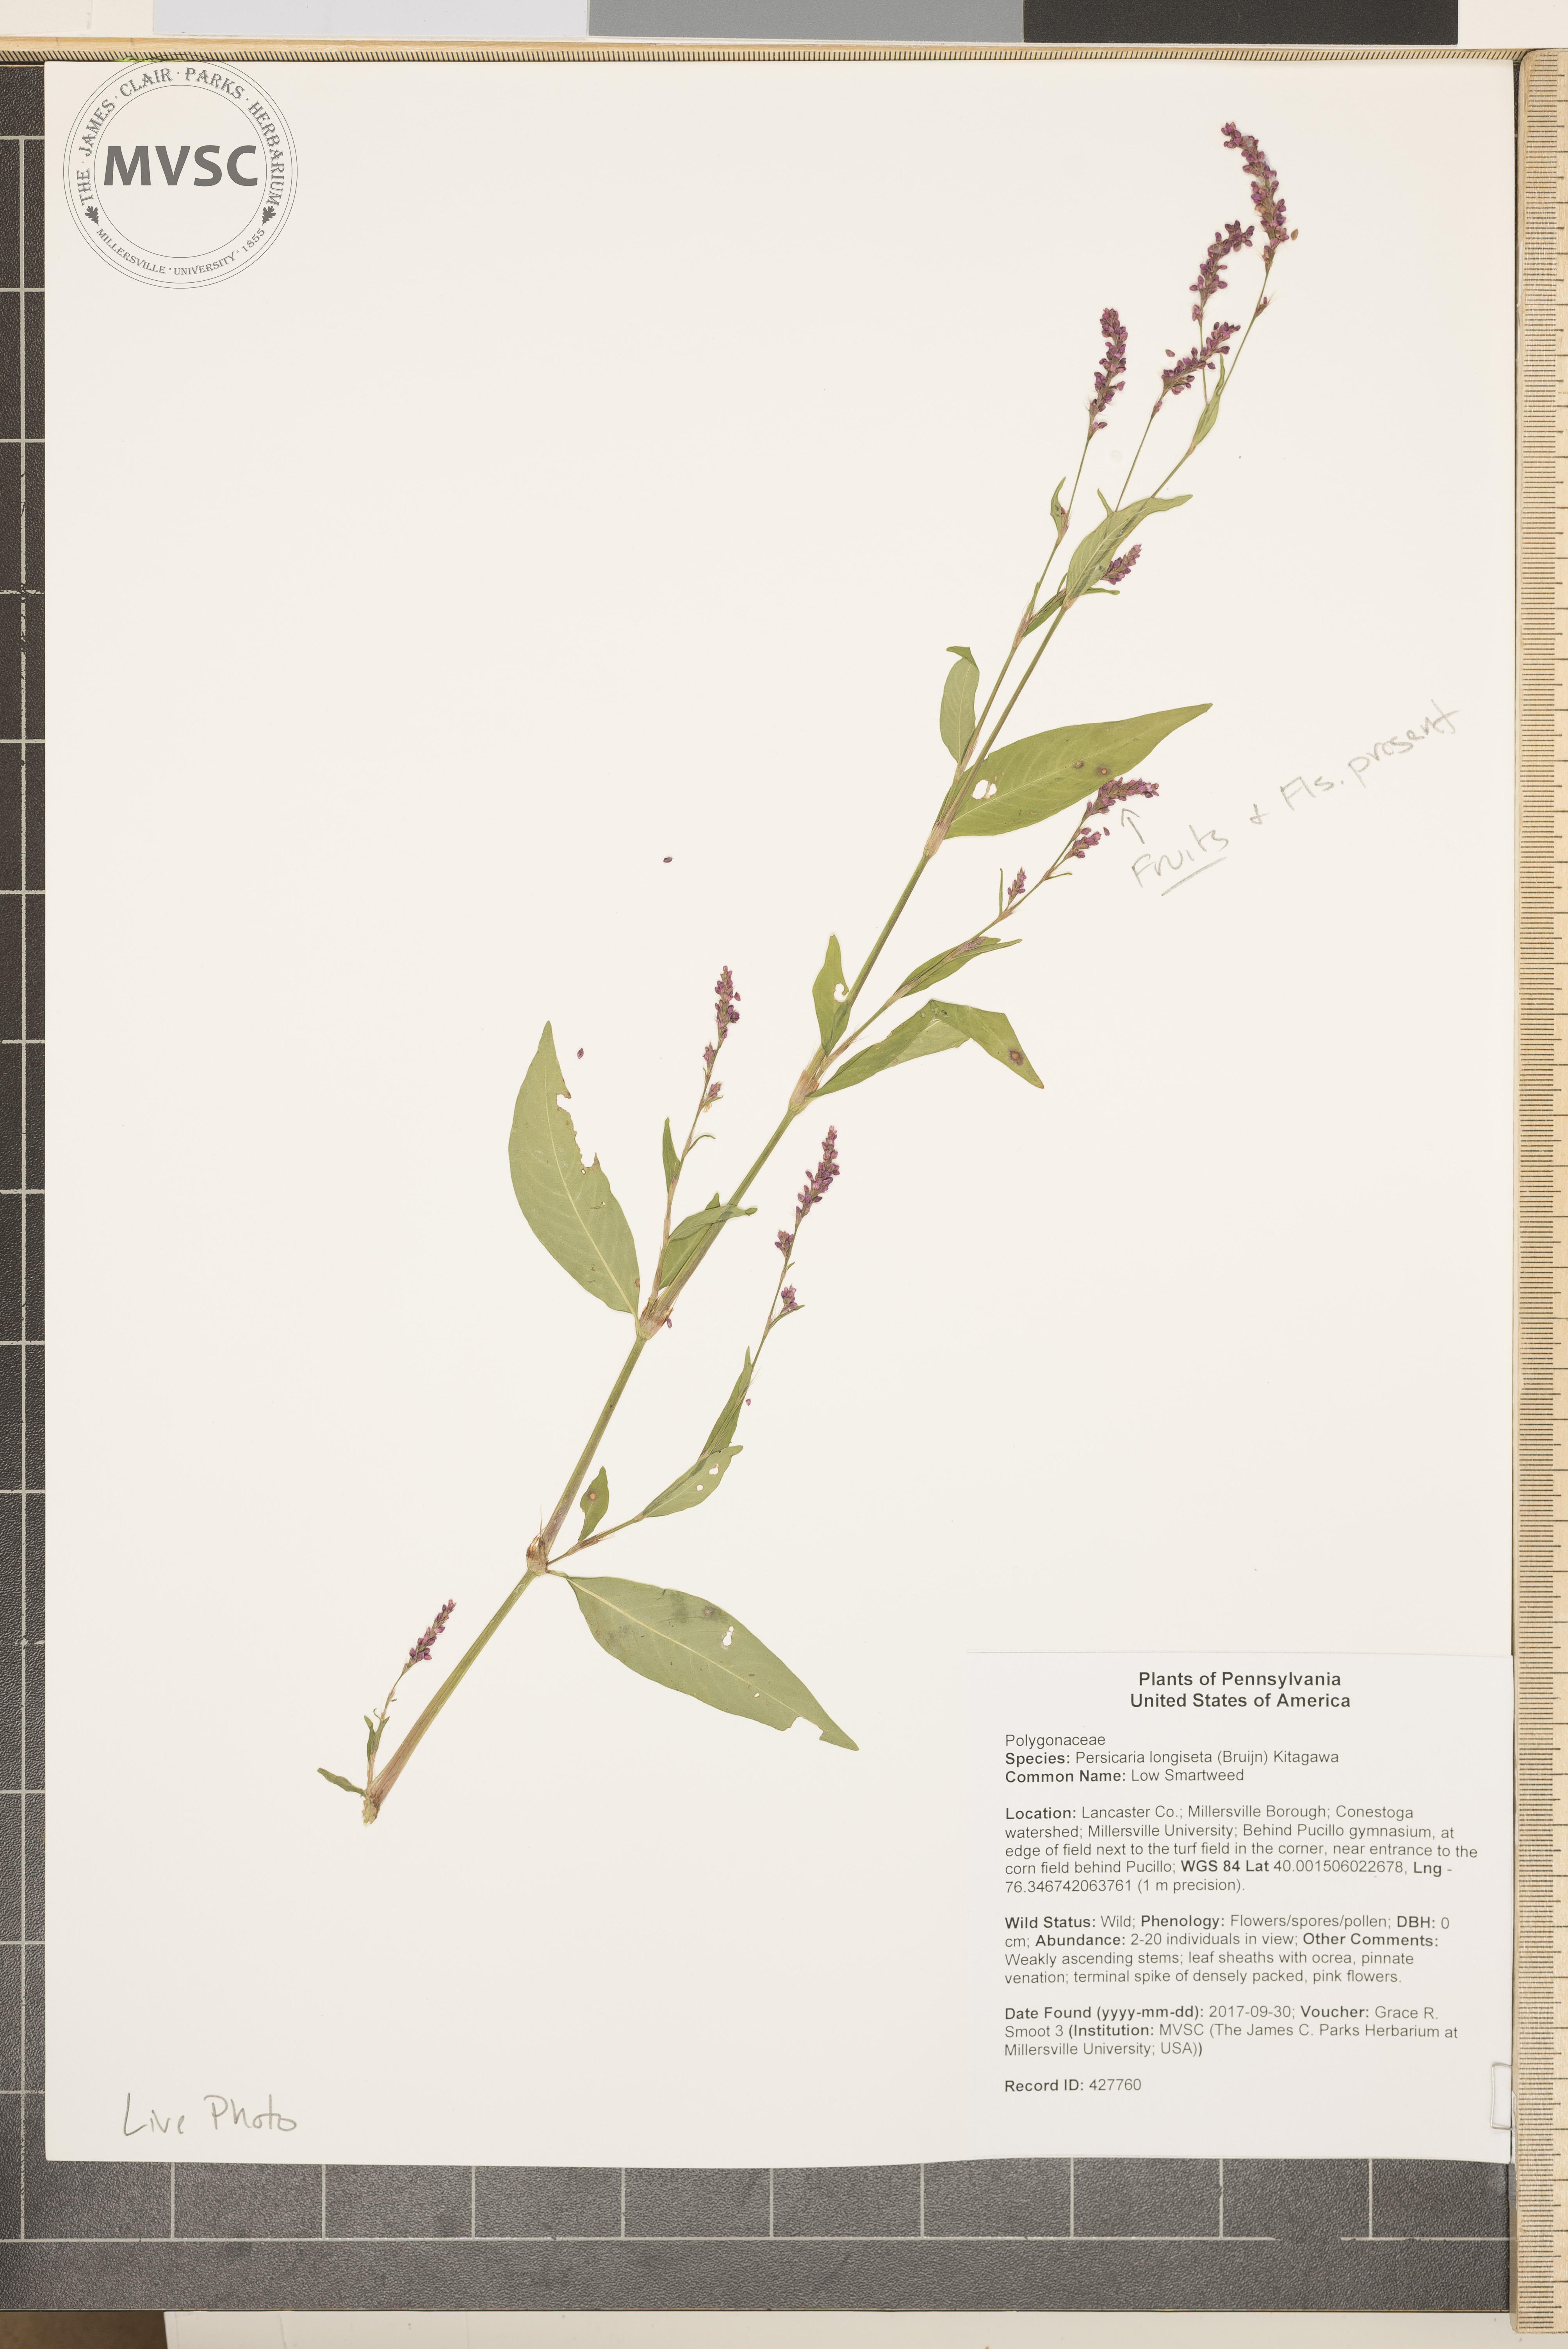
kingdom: Plantae
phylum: Tracheophyta
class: Magnoliopsida
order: Caryophyllales
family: Polygonaceae
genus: Persicaria
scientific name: Persicaria longiseta
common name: Low Smartweed
